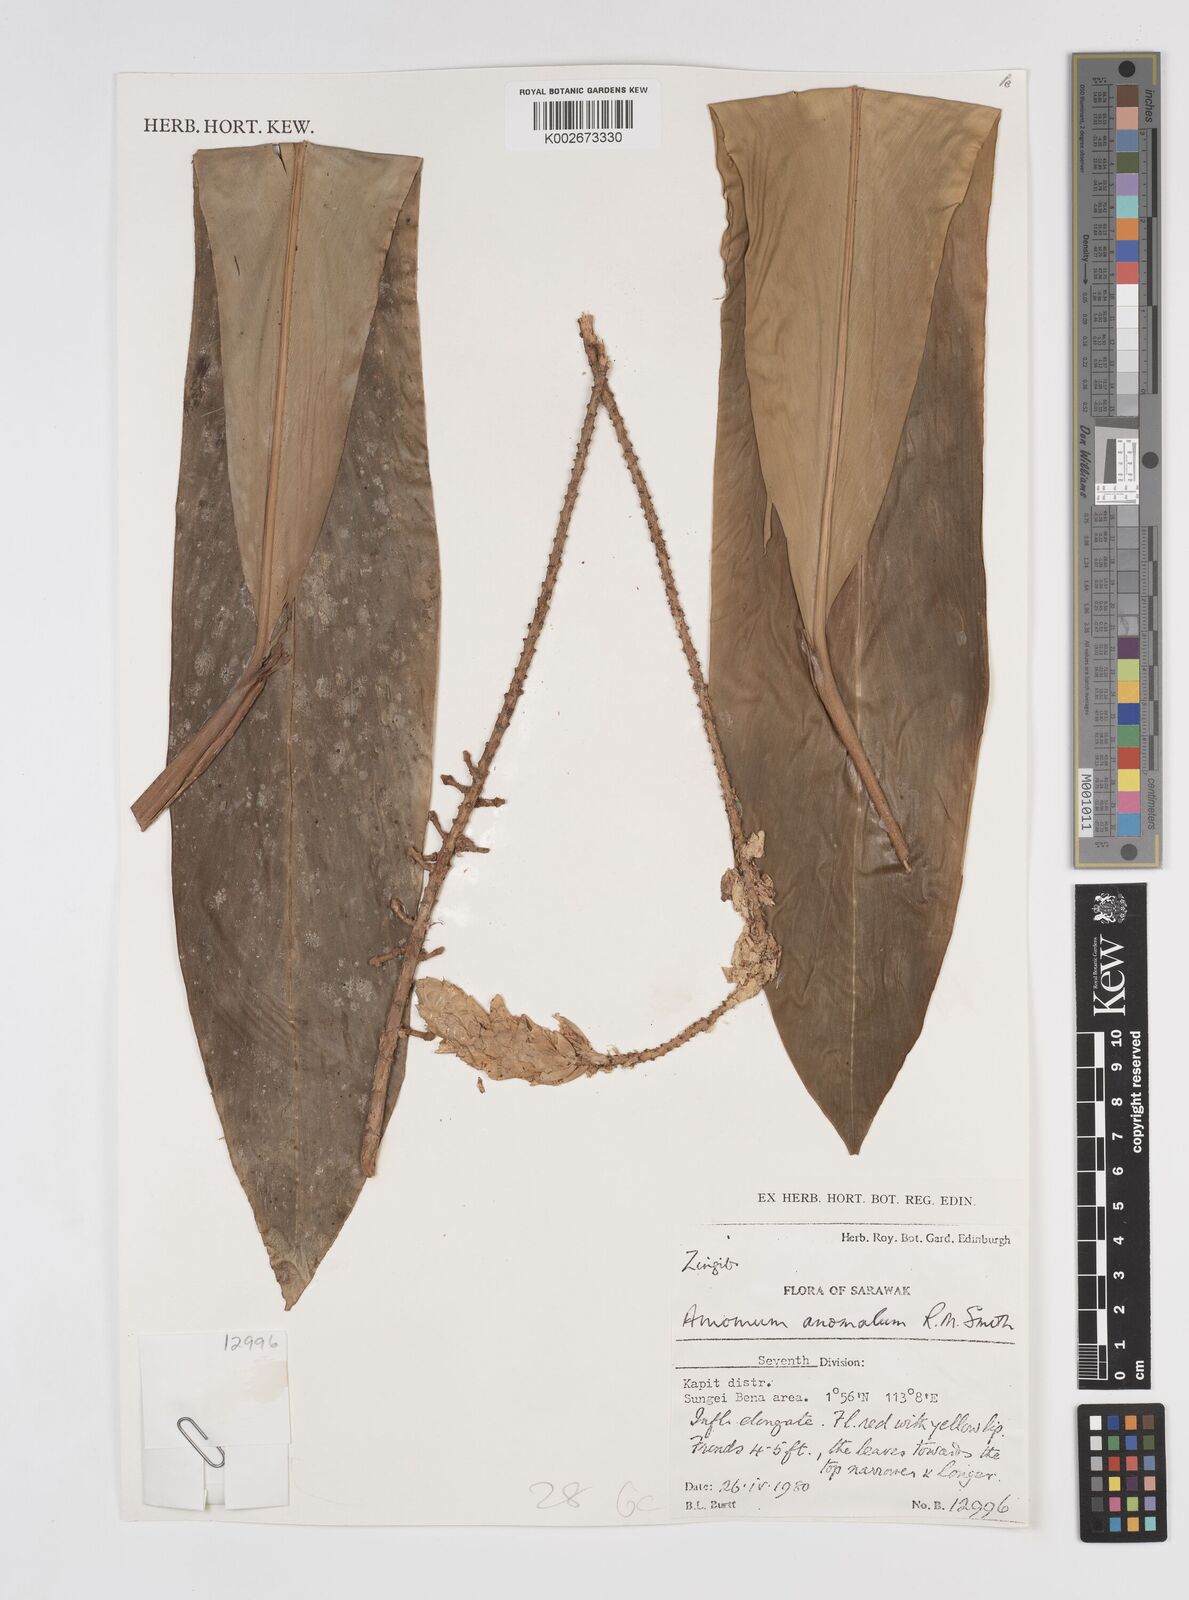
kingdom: Plantae
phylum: Tracheophyta
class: Liliopsida
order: Zingiberales
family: Zingiberaceae
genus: Sulettaria
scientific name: Sulettaria anomala
